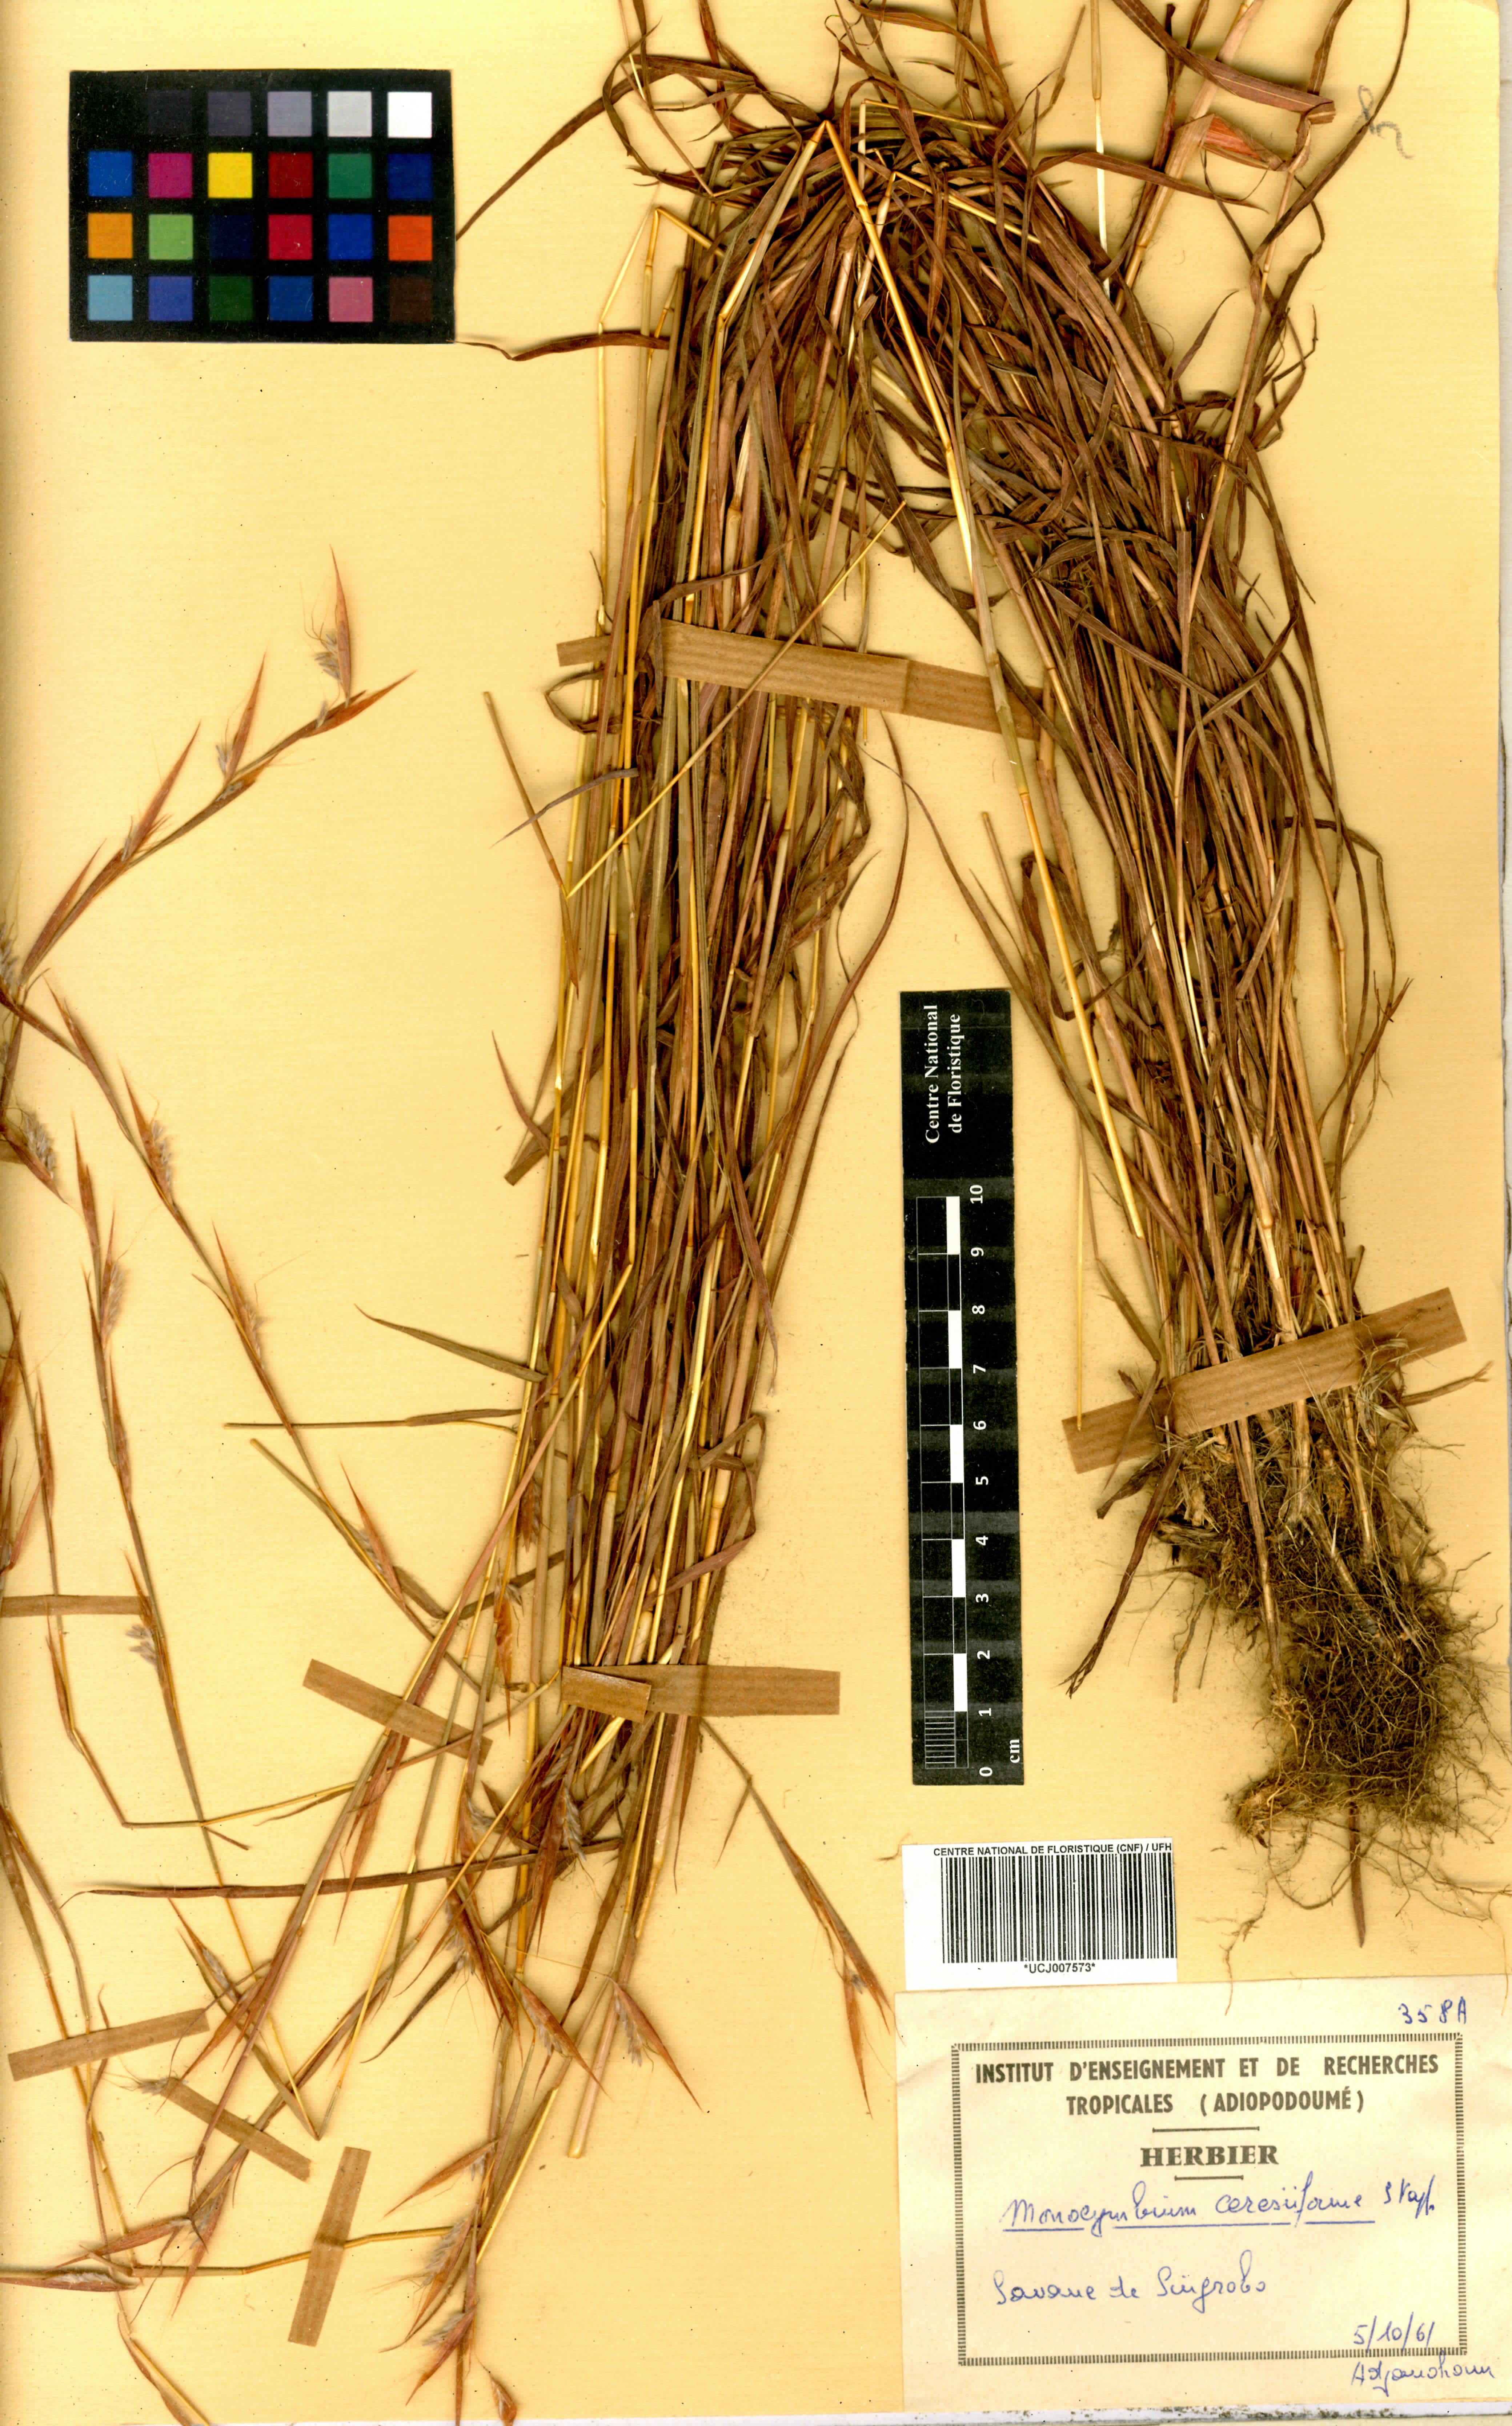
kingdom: Plantae
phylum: Tracheophyta
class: Liliopsida
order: Poales
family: Poaceae
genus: Monocymbium
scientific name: Monocymbium ceresiiforme
